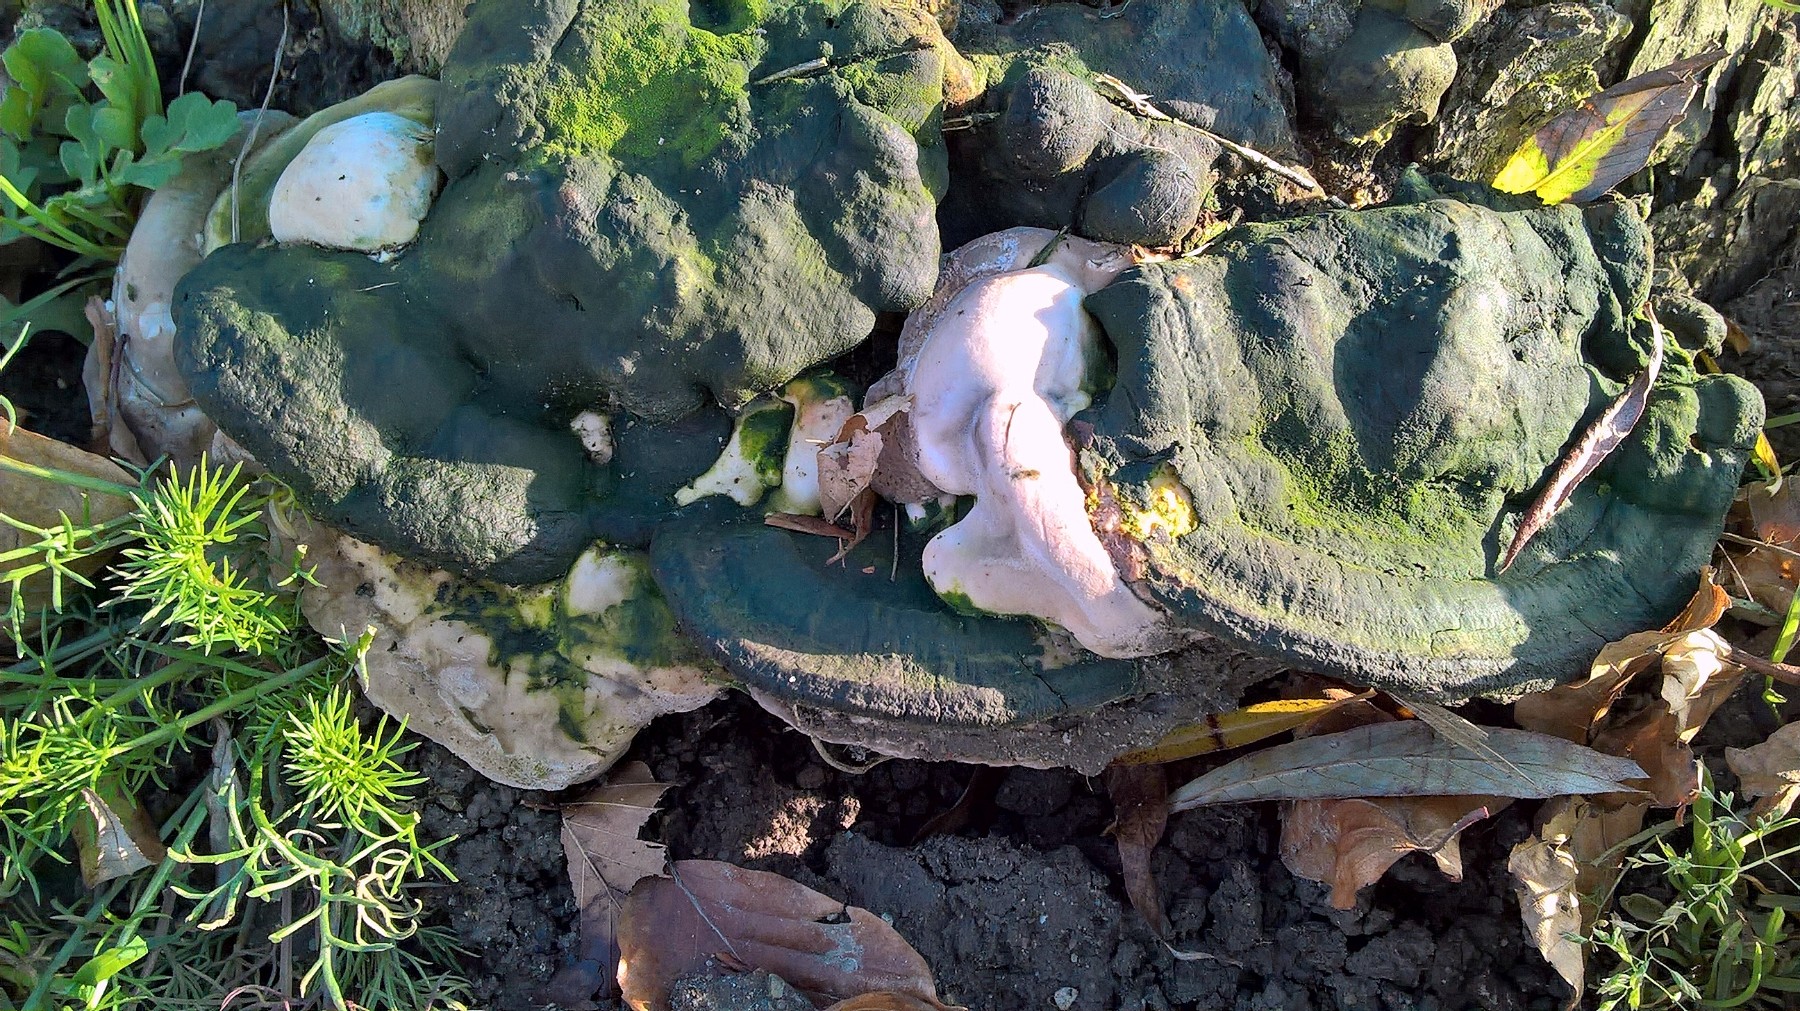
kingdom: Fungi
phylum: Basidiomycota
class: Agaricomycetes
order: Polyporales
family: Polyporaceae
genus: Ganoderma
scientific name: Ganoderma adspersum
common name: grov lakporesvamp
